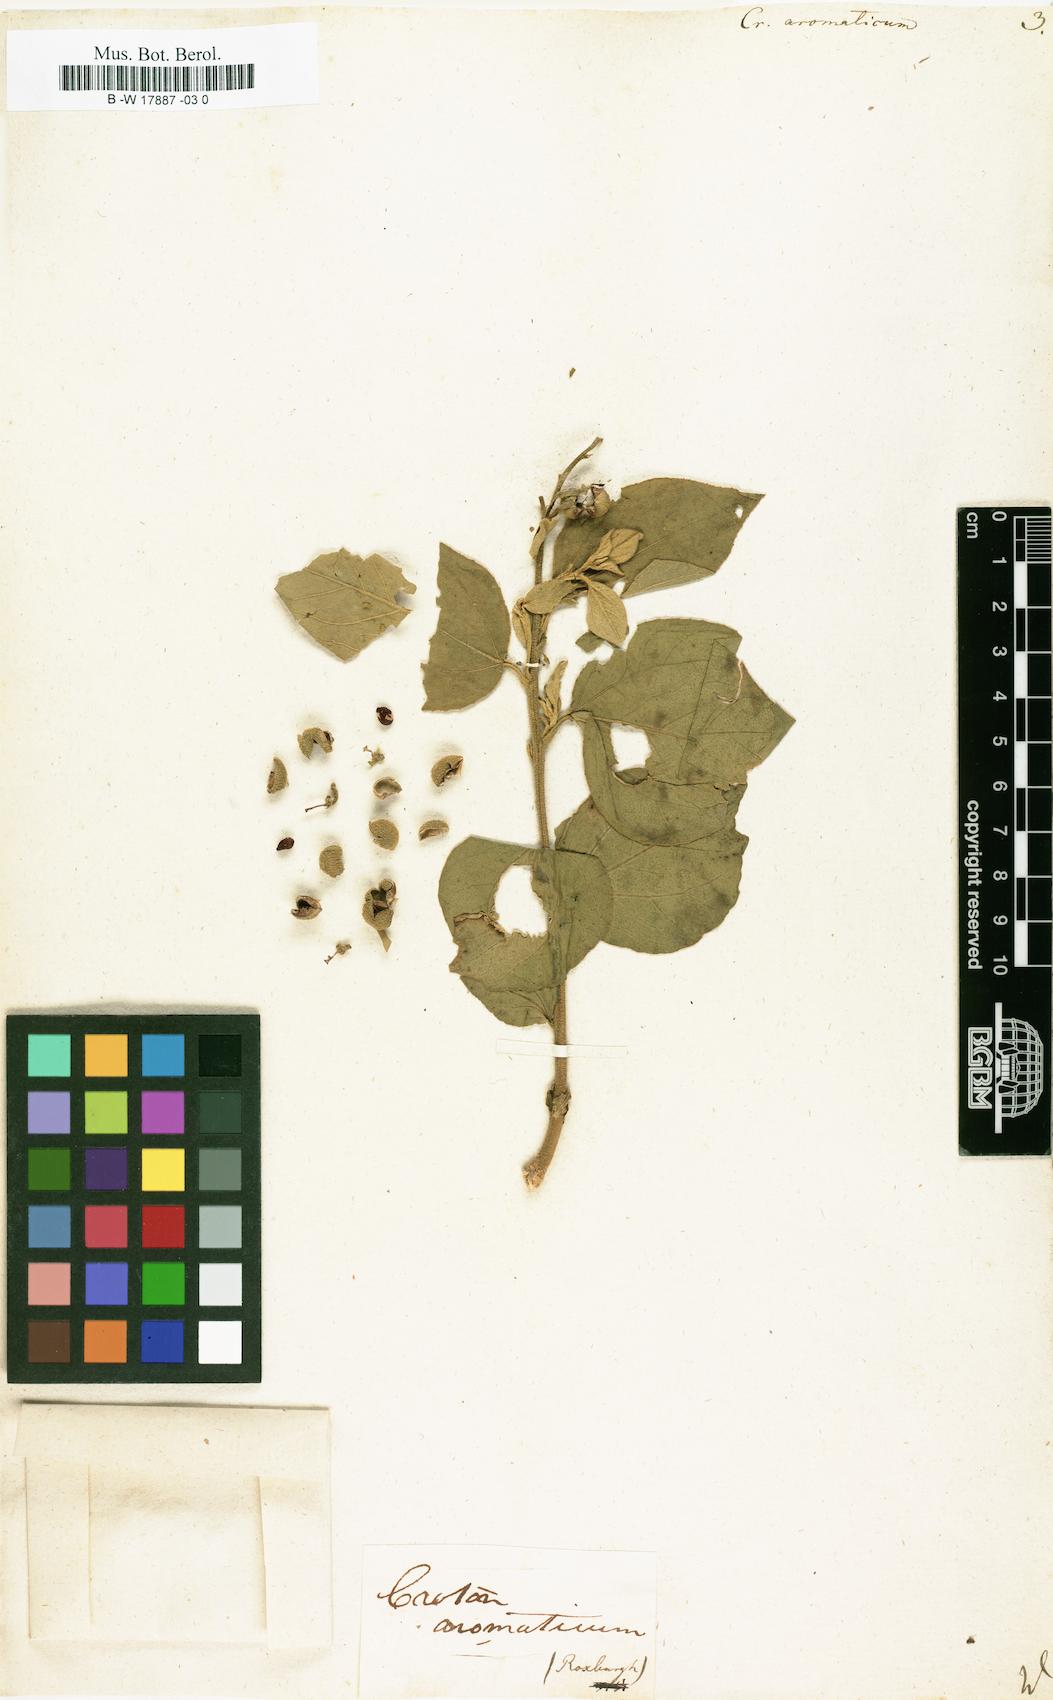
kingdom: Plantae
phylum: Tracheophyta
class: Magnoliopsida
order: Malpighiales
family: Euphorbiaceae
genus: Croton
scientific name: Croton aromaticus
